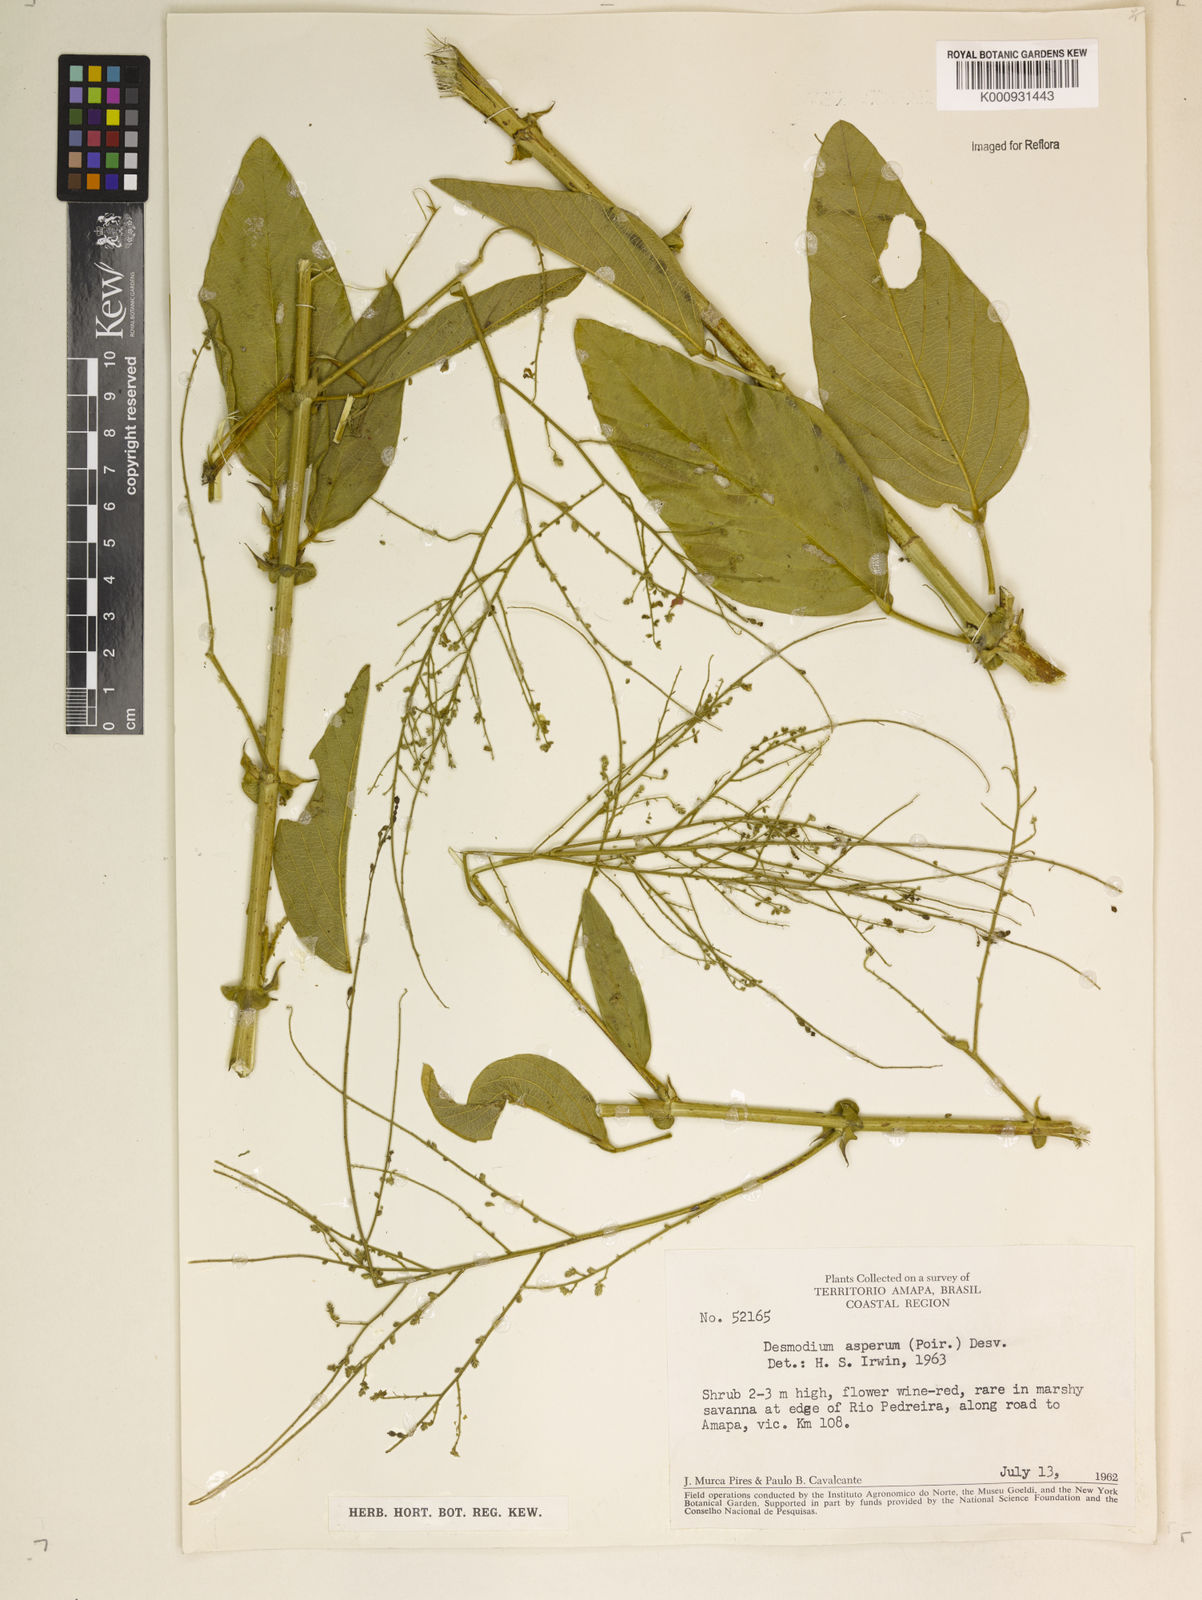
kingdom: Plantae
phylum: Tracheophyta
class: Magnoliopsida
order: Fabales
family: Fabaceae
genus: Desmodium
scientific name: Desmodium distortum
